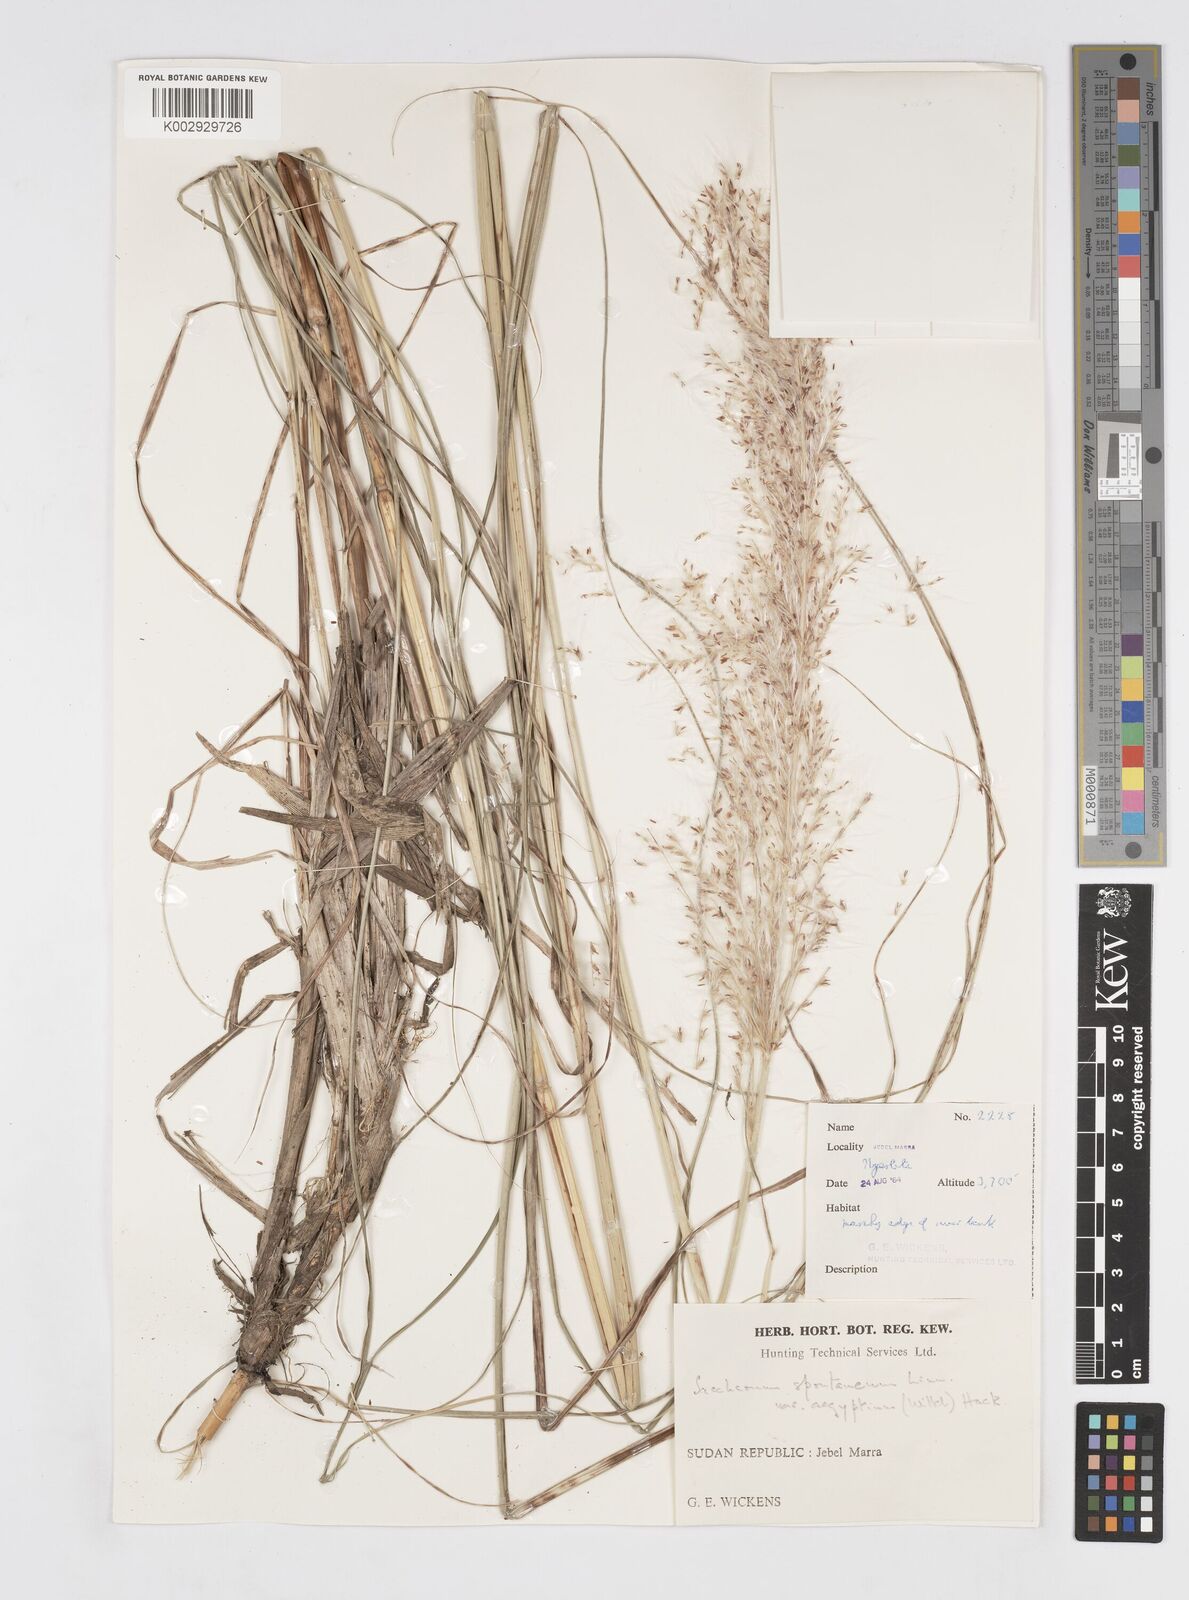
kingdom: Plantae
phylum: Tracheophyta
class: Liliopsida
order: Poales
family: Poaceae
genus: Saccharum
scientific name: Saccharum spontaneum
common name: Wild sugarcane
